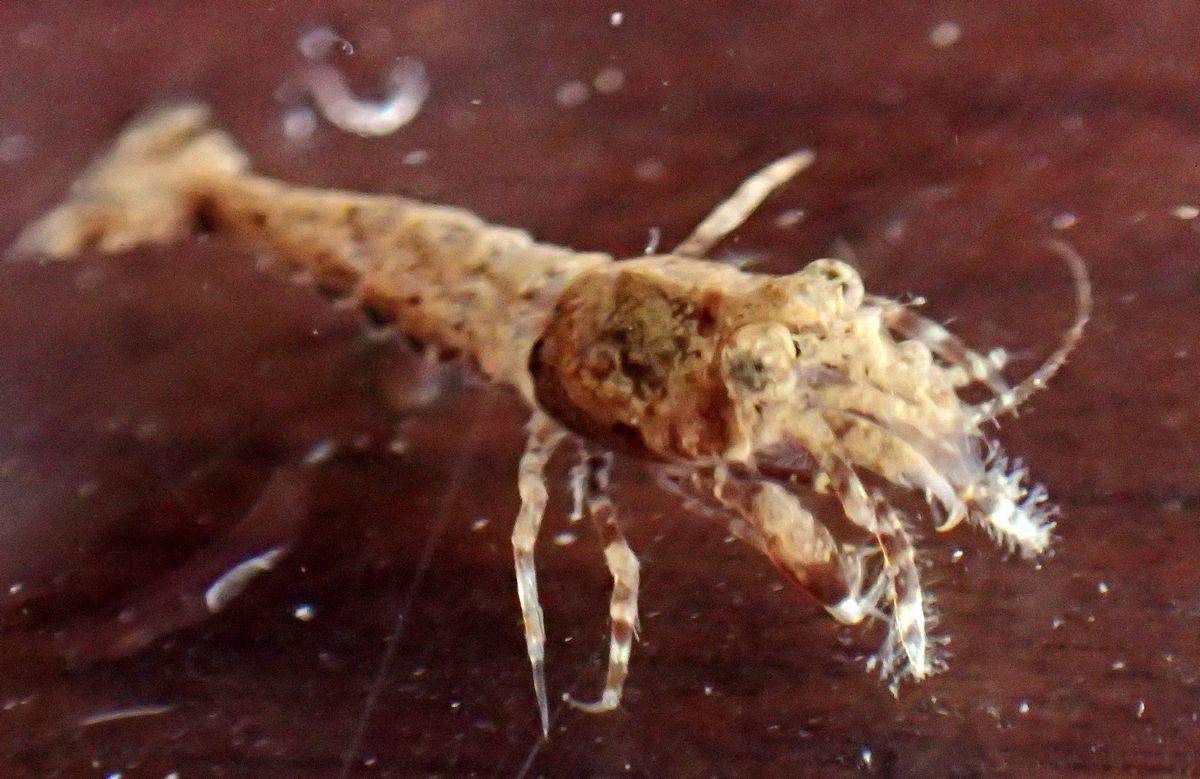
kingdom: Animalia
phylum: Arthropoda
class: Malacostraca
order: Decapoda
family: Crangonidae
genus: Sclerocrangon
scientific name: Sclerocrangon boreas
